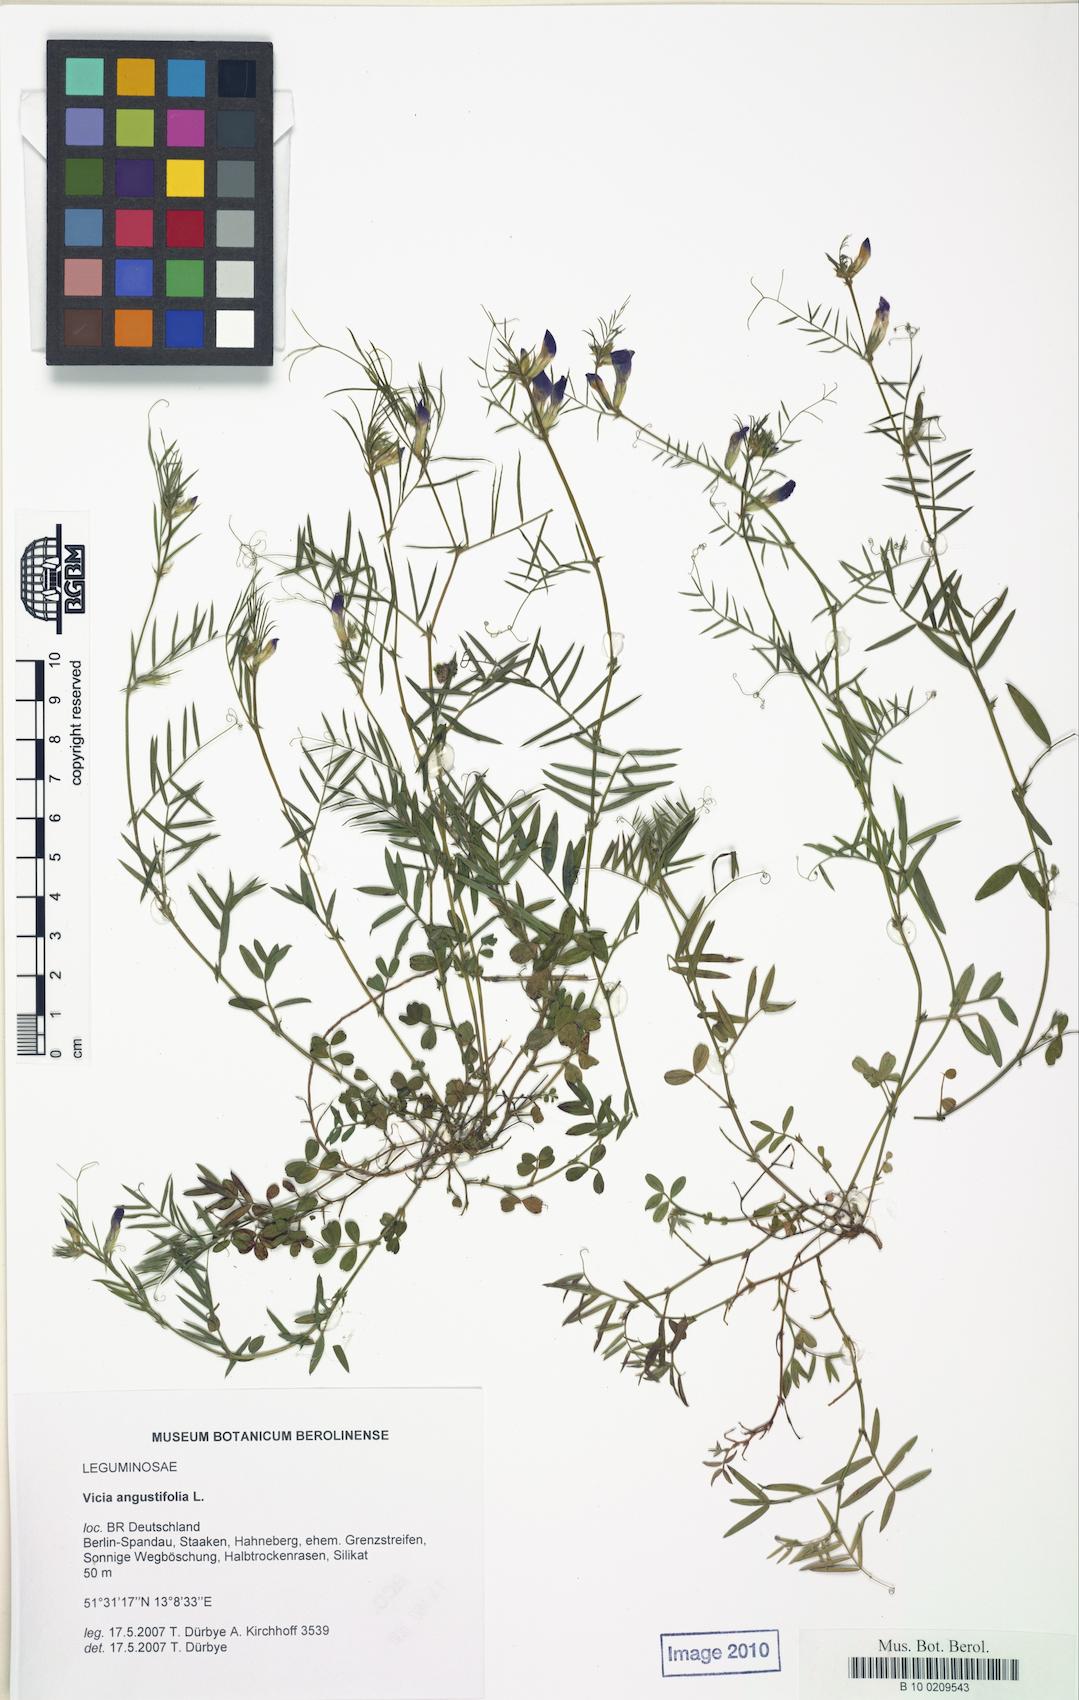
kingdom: Plantae
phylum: Tracheophyta
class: Magnoliopsida
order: Fabales
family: Fabaceae
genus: Vicia
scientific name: Vicia sativa
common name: Garden vetch
